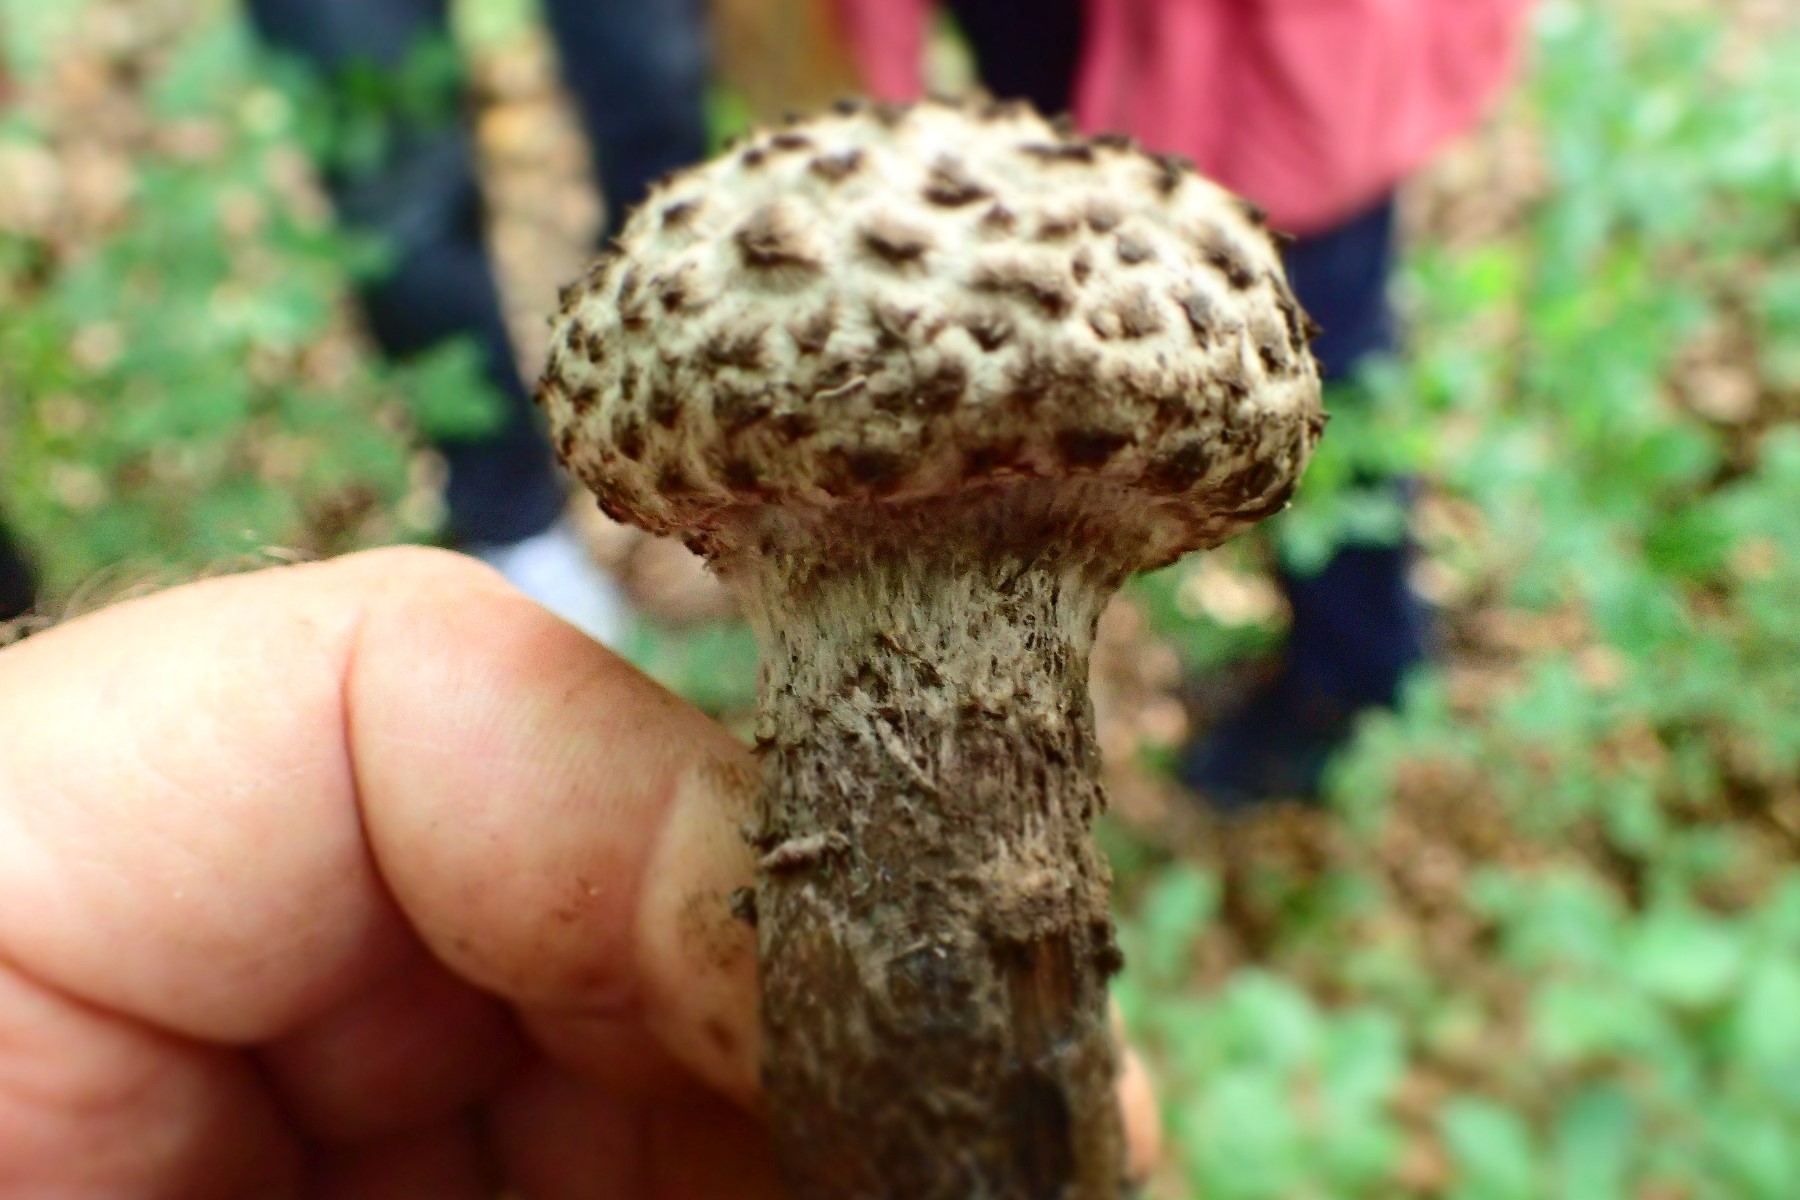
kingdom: Fungi
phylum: Basidiomycota
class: Agaricomycetes
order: Boletales
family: Boletaceae
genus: Strobilomyces
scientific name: Strobilomyces strobilaceus
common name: koglerørhat
